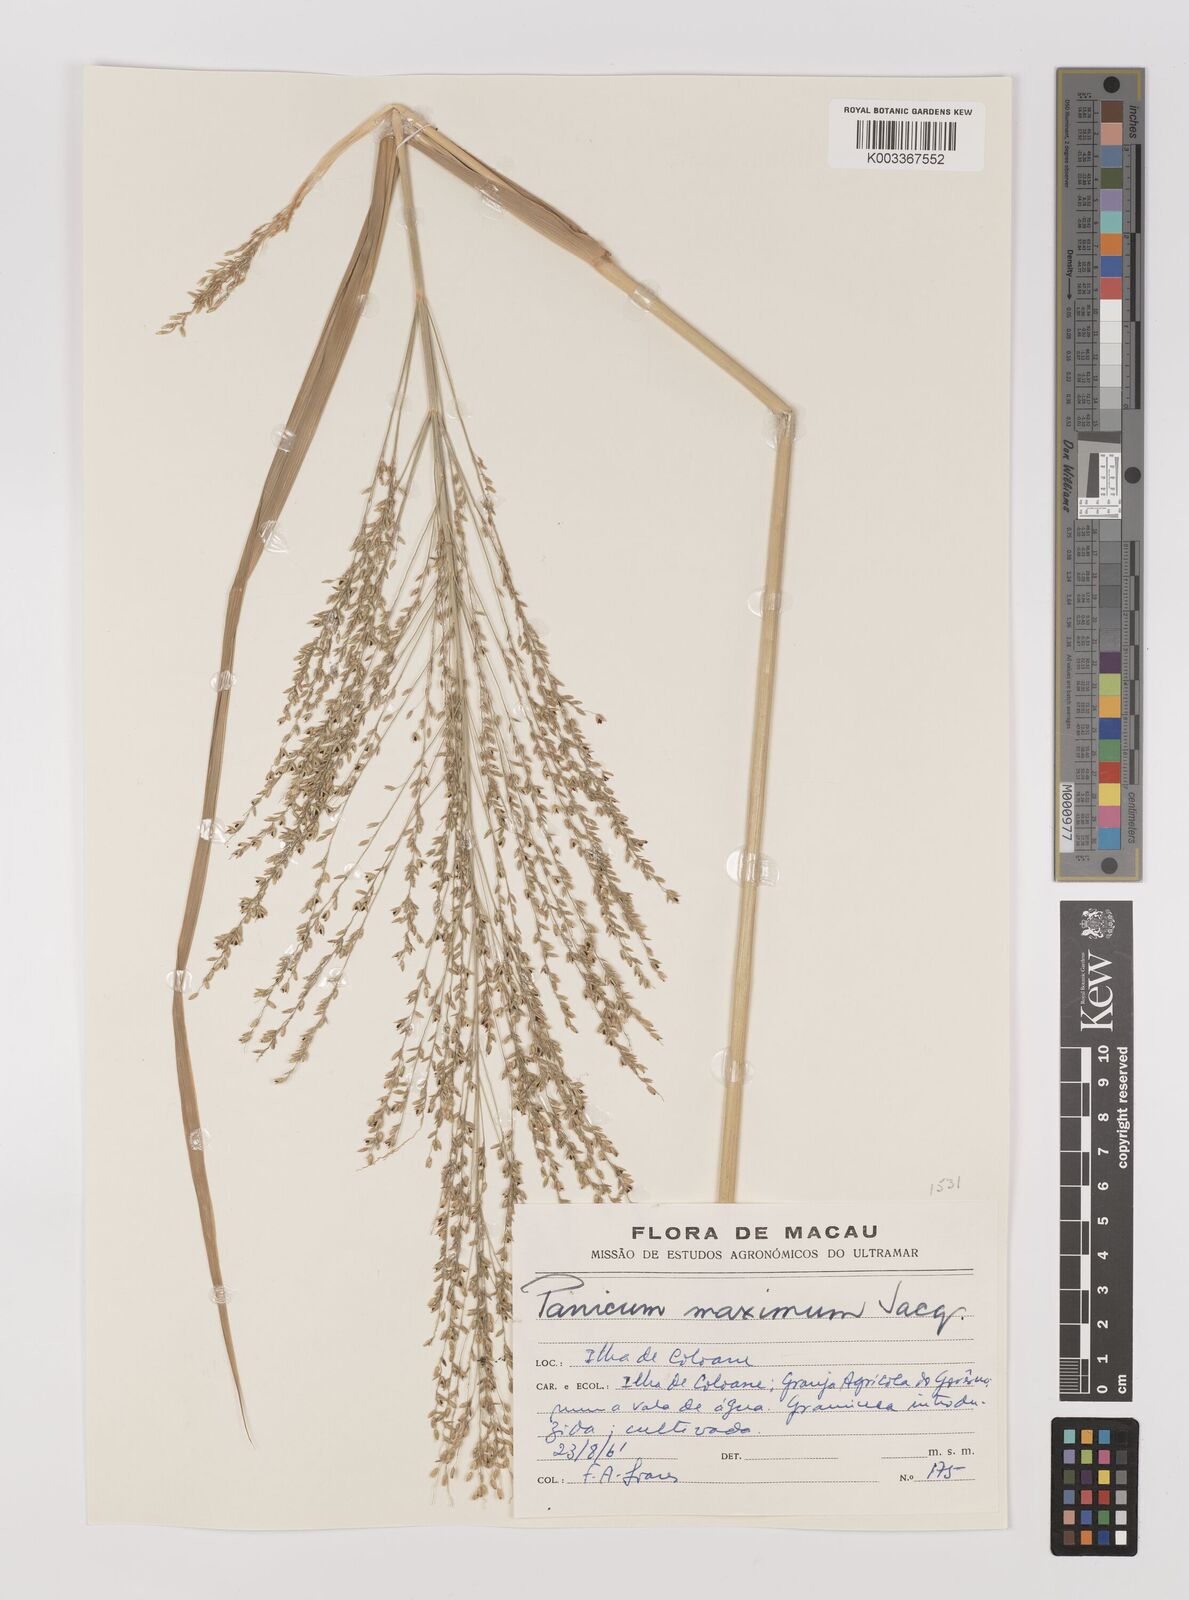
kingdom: Plantae
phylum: Tracheophyta
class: Liliopsida
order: Poales
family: Poaceae
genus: Megathyrsus
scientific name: Megathyrsus maximus
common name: Guineagrass
